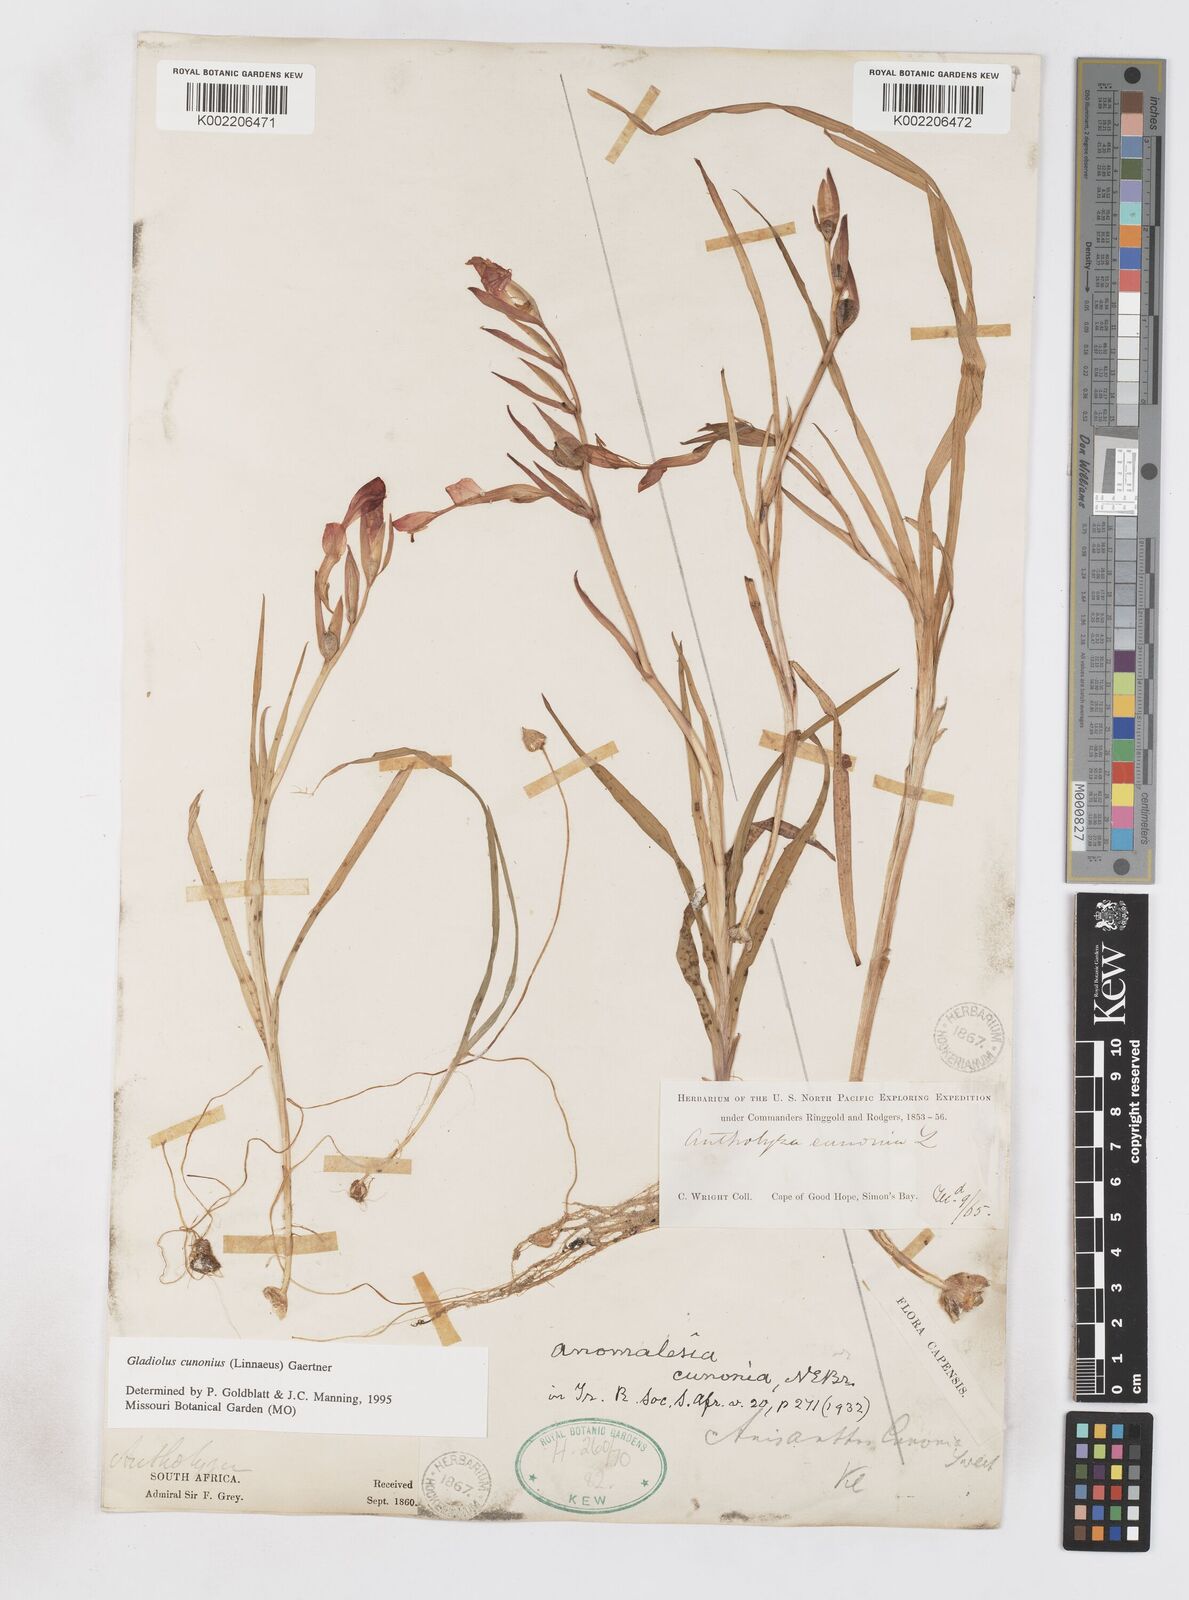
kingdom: Plantae
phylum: Tracheophyta
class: Liliopsida
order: Asparagales
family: Iridaceae
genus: Gladiolus
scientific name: Gladiolus cunonius
